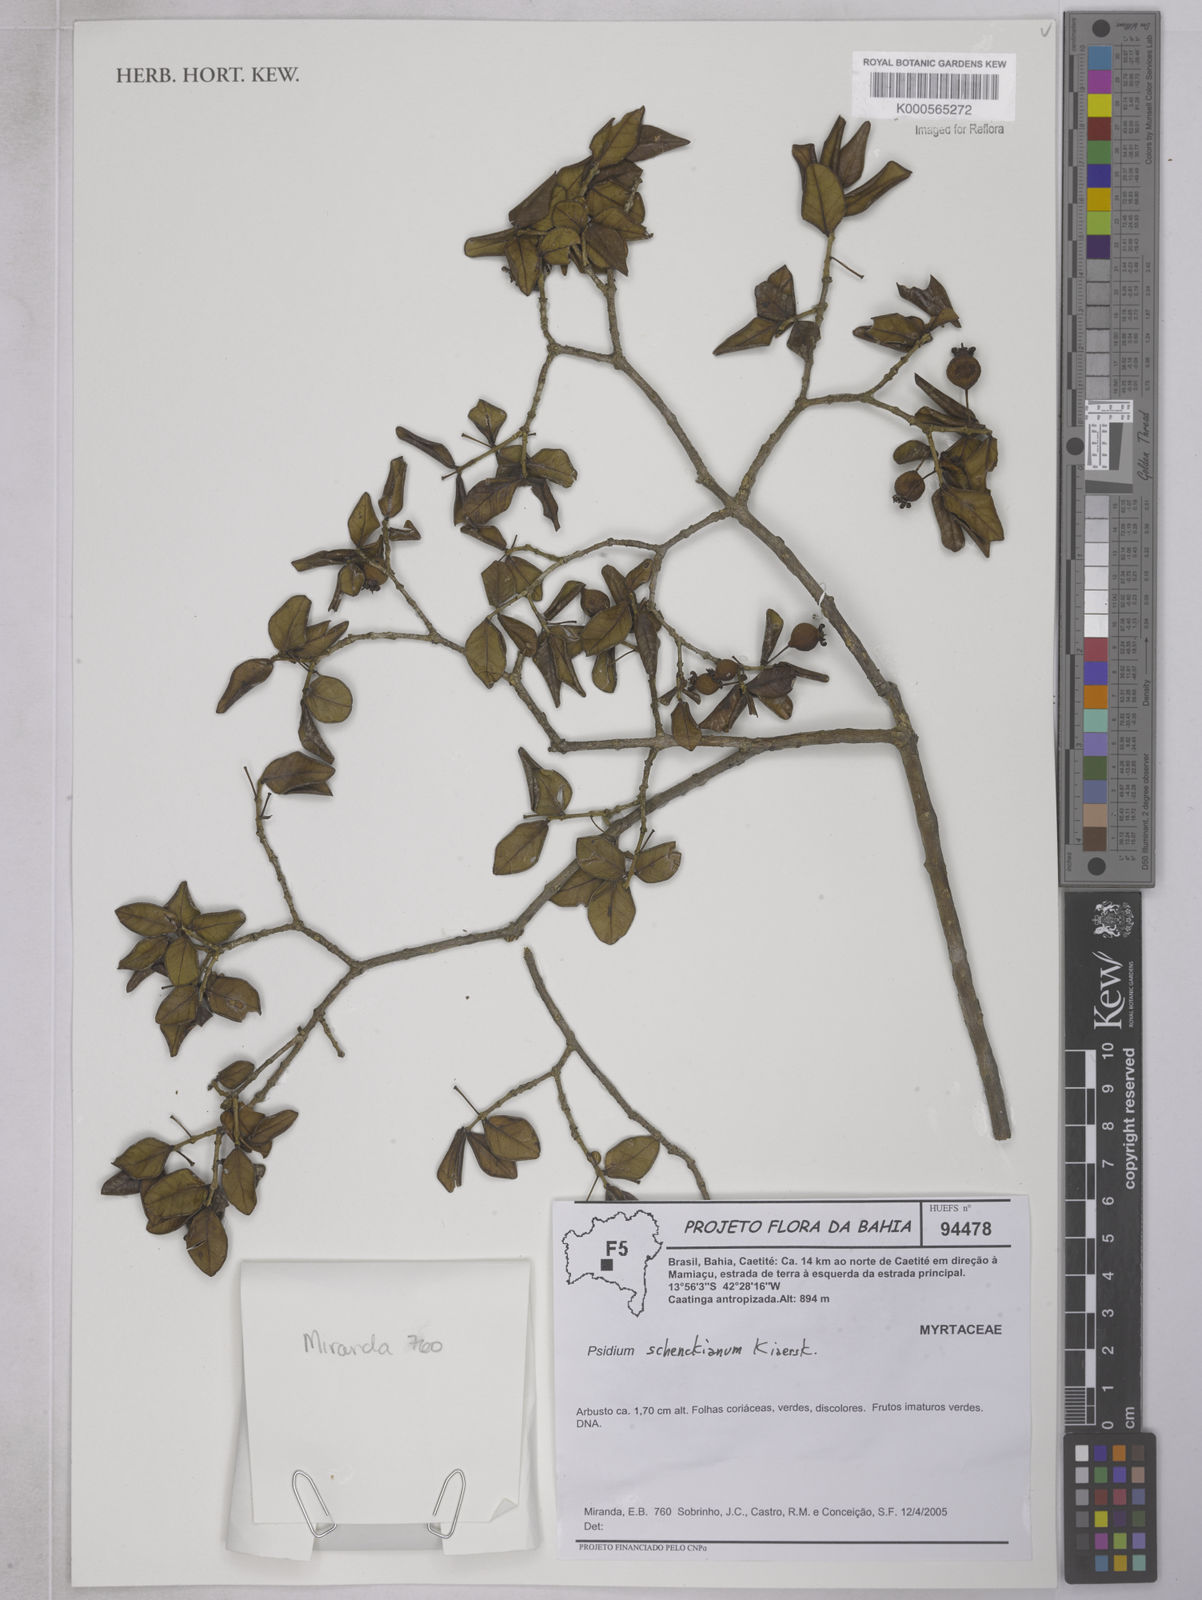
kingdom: Plantae
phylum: Tracheophyta
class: Magnoliopsida
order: Myrtales
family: Myrtaceae
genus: Psidium
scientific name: Psidium
